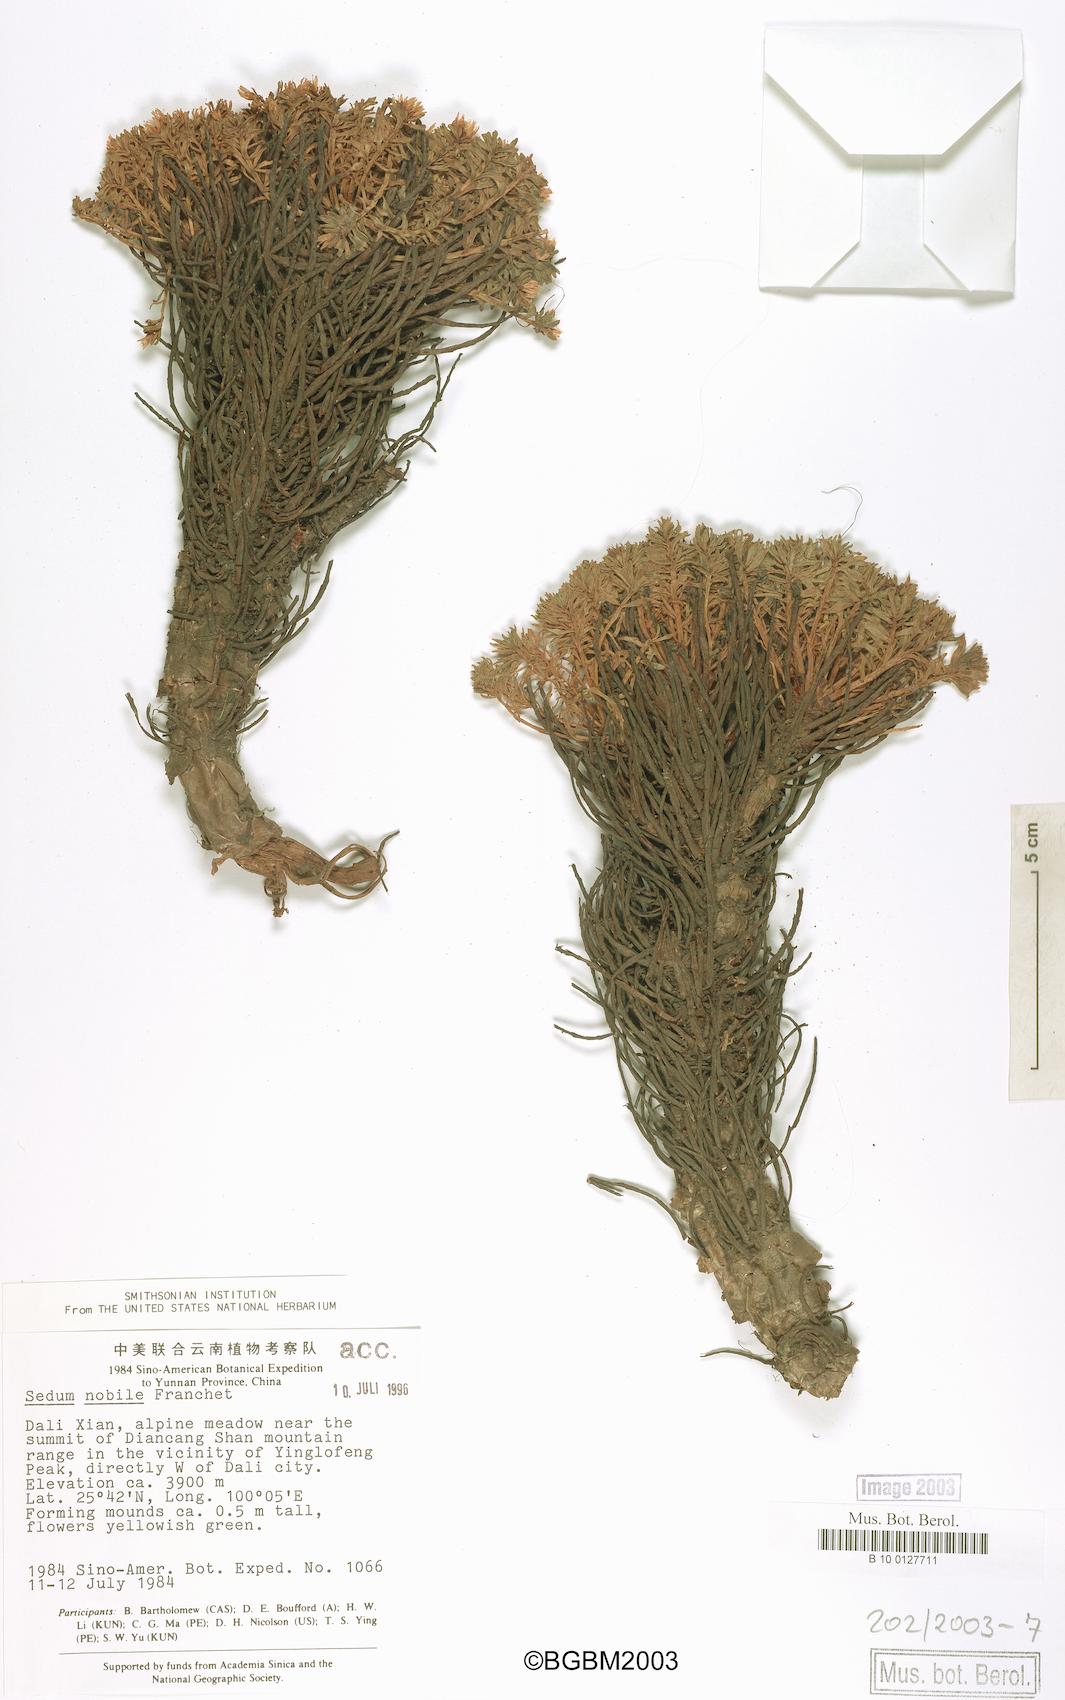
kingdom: Plantae
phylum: Tracheophyta
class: Magnoliopsida
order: Saxifragales
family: Crassulaceae
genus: Rhodiola
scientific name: Rhodiola nobilis
